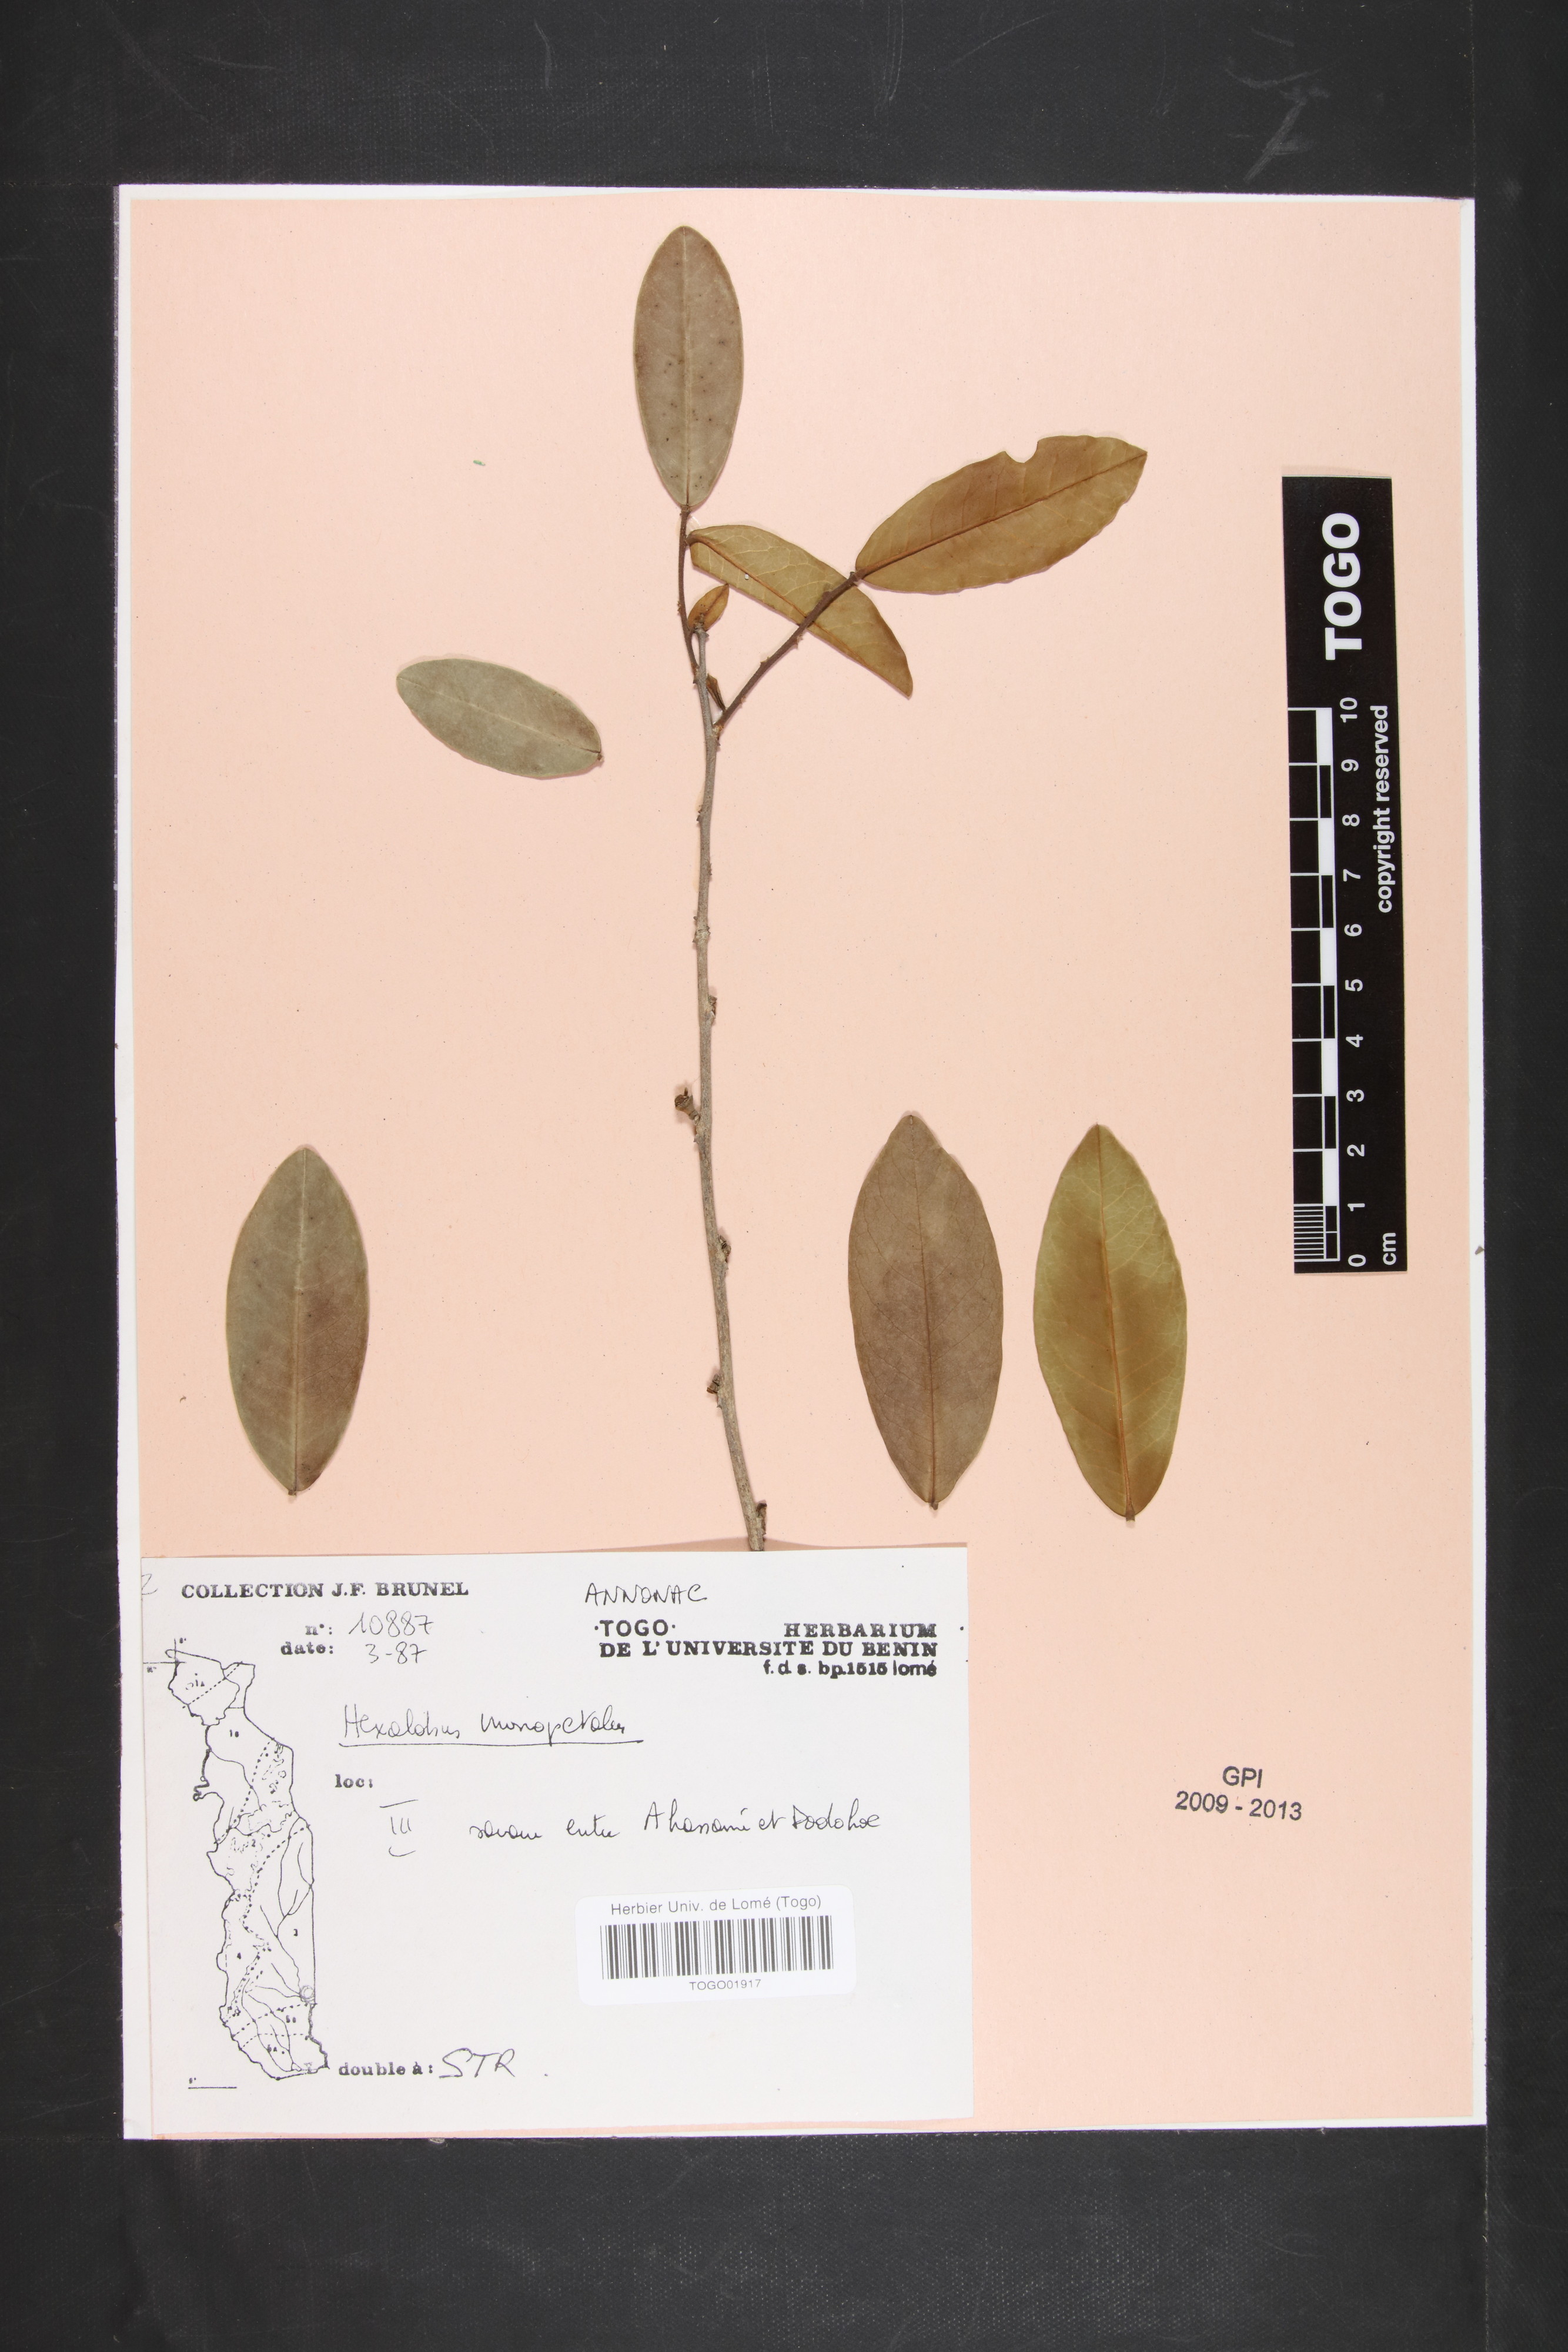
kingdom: Plantae
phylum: Tracheophyta
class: Magnoliopsida
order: Magnoliales
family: Annonaceae
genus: Hexalobus
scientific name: Hexalobus monopetalus
